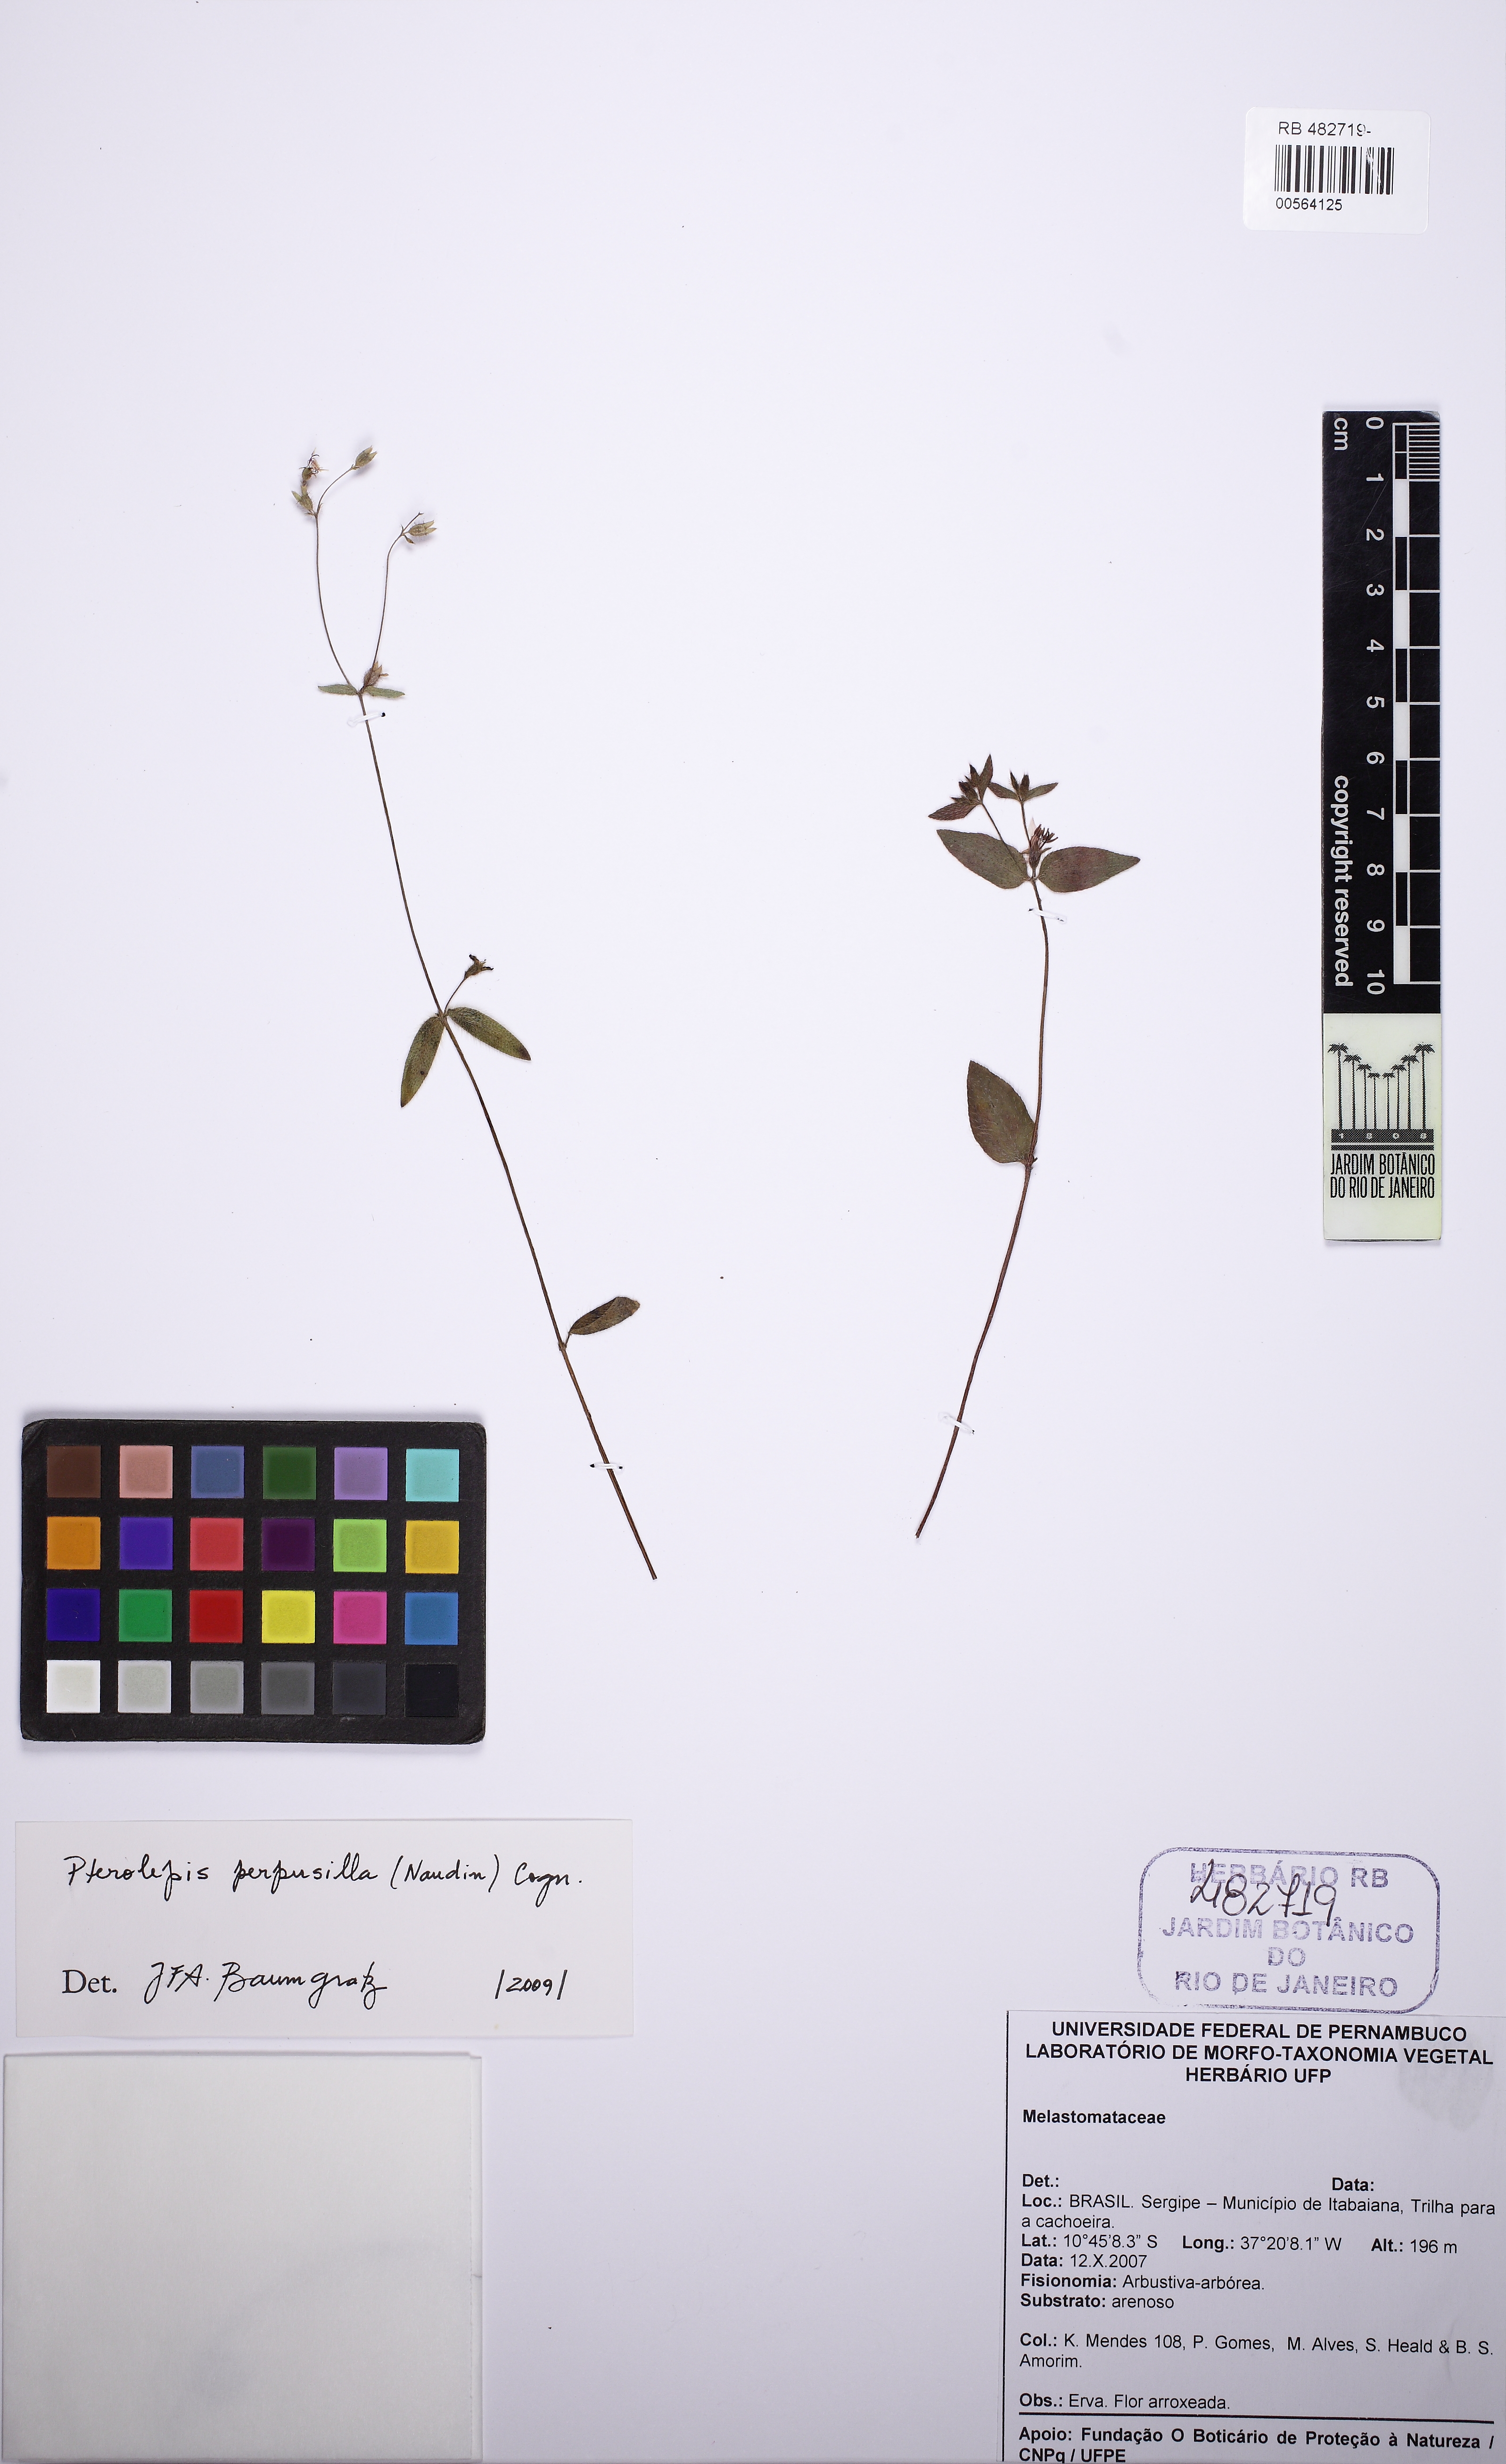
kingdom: Plantae
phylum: Tracheophyta
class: Magnoliopsida
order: Myrtales
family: Melastomataceae
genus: Pterolepis
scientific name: Pterolepis perpusilla
